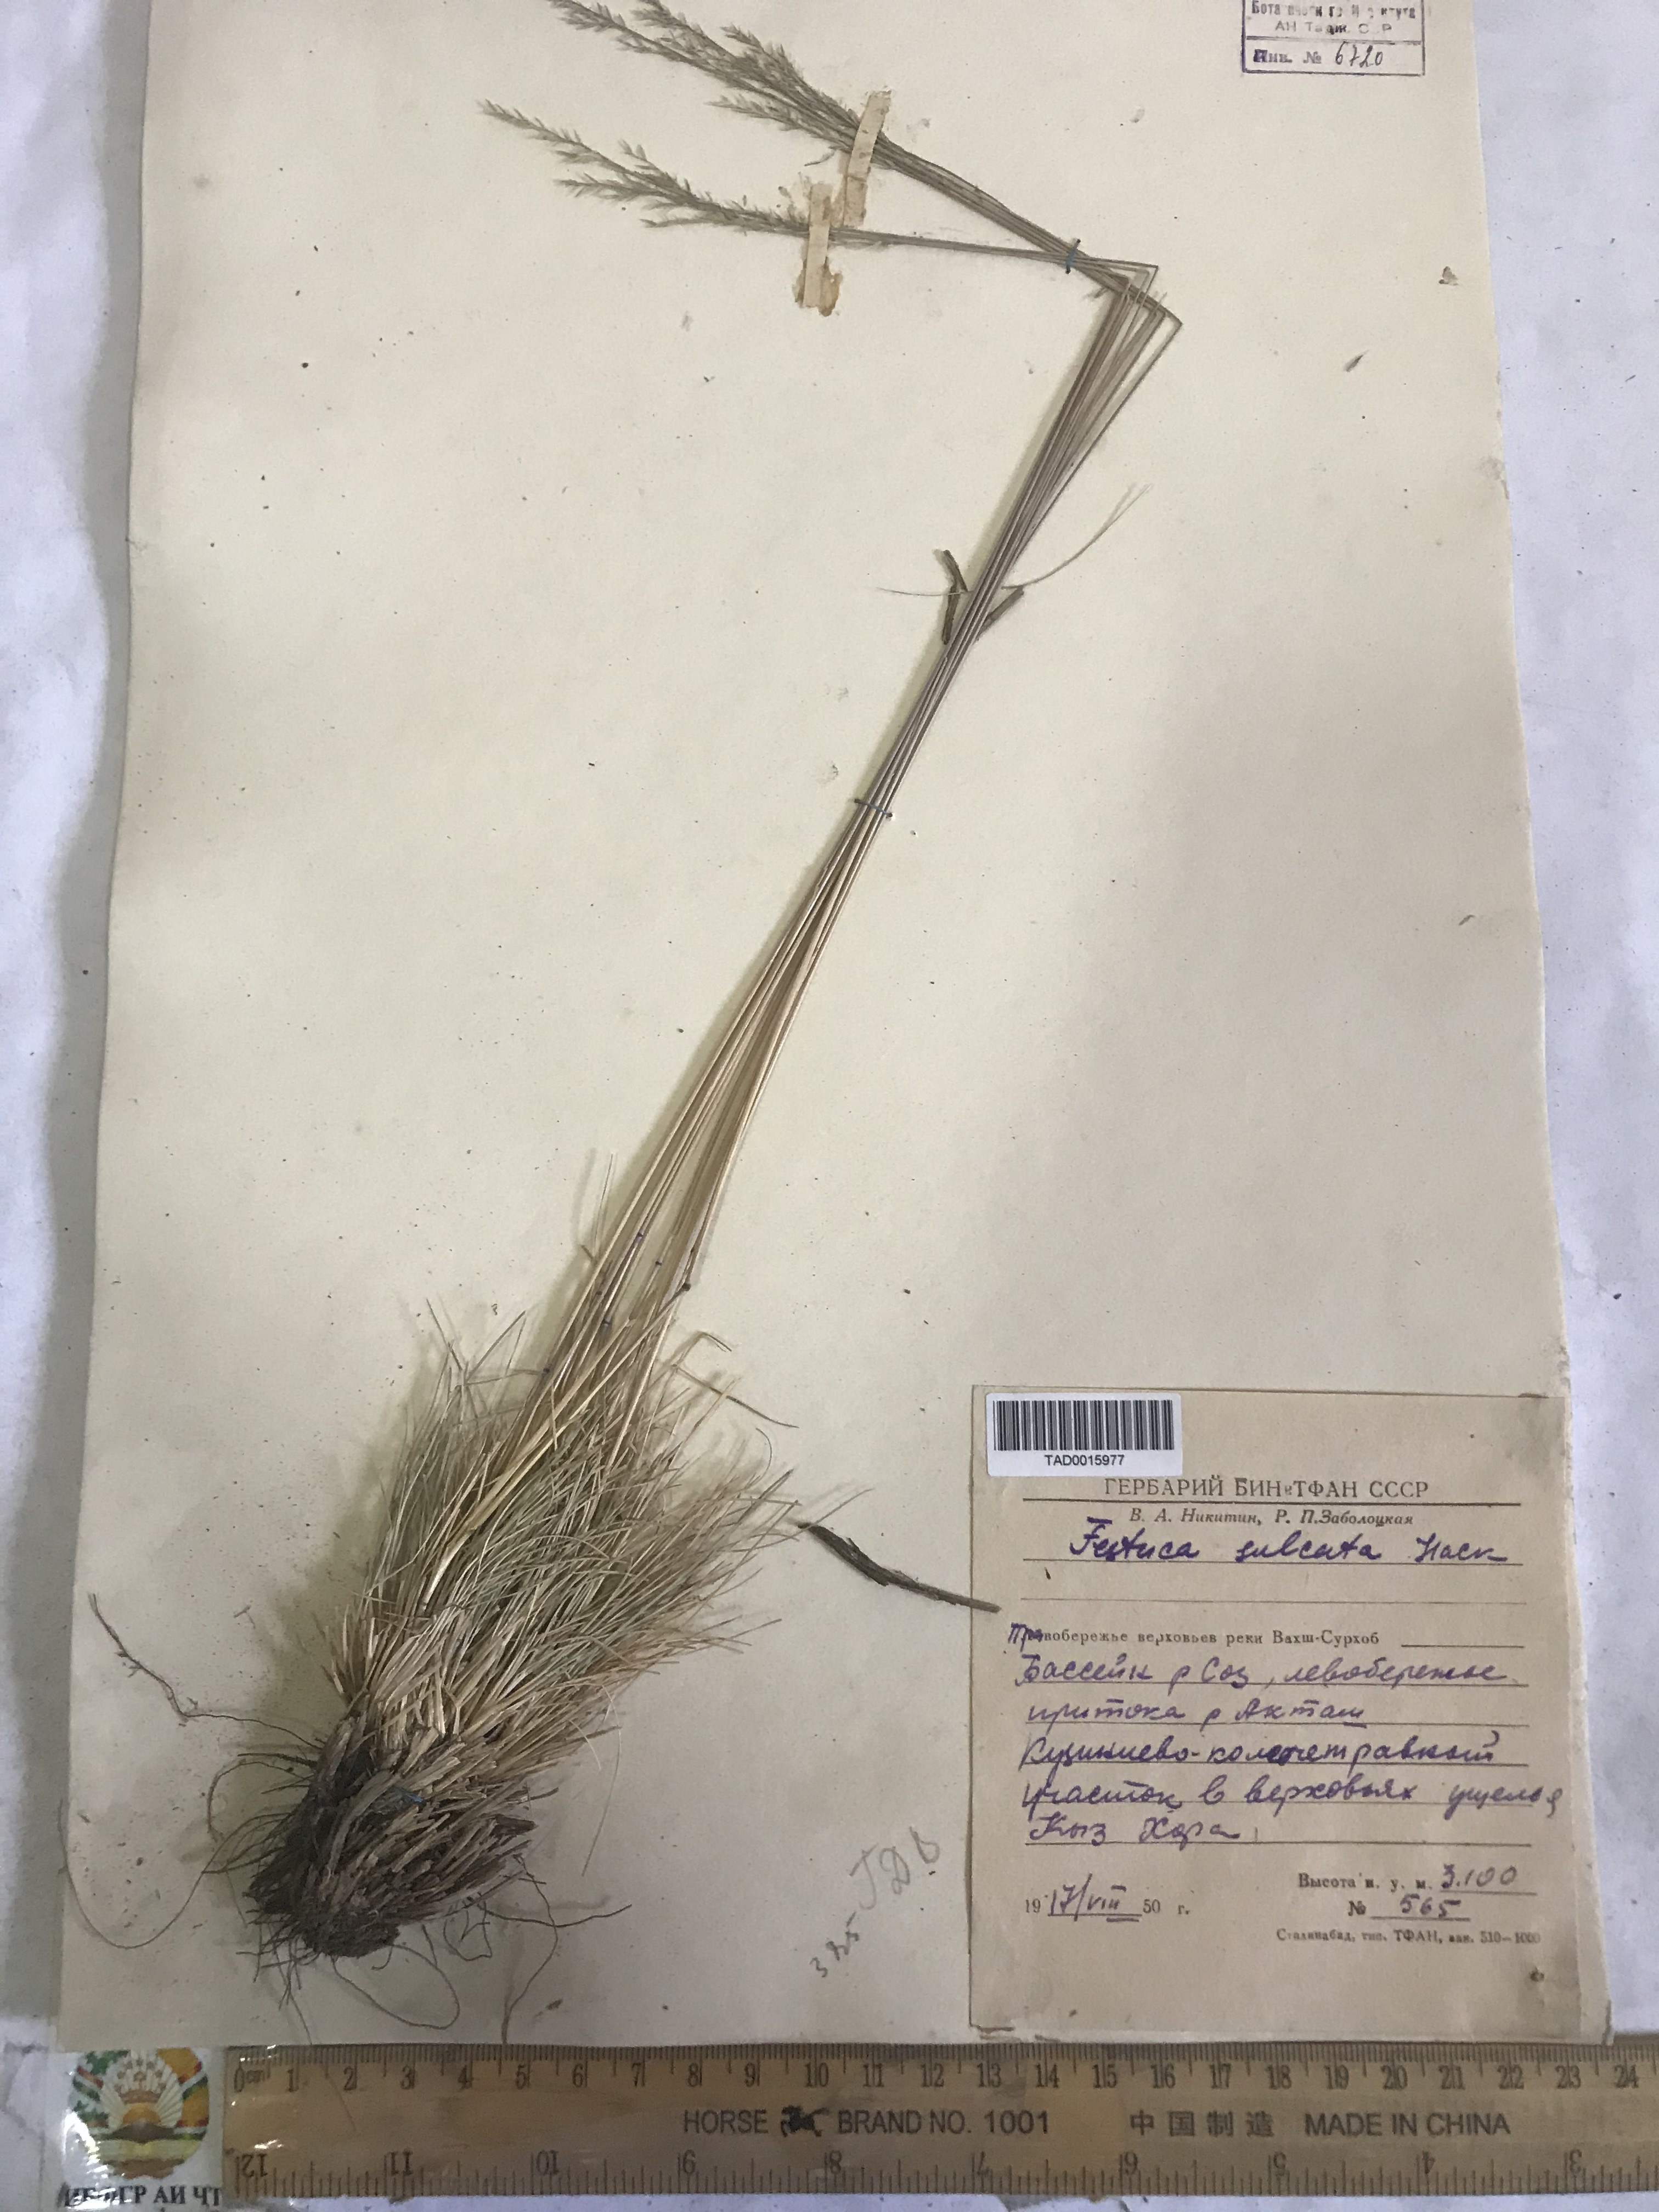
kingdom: Plantae
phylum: Tracheophyta
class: Liliopsida
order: Poales
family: Poaceae
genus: Festuca
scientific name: Festuca sulcata
